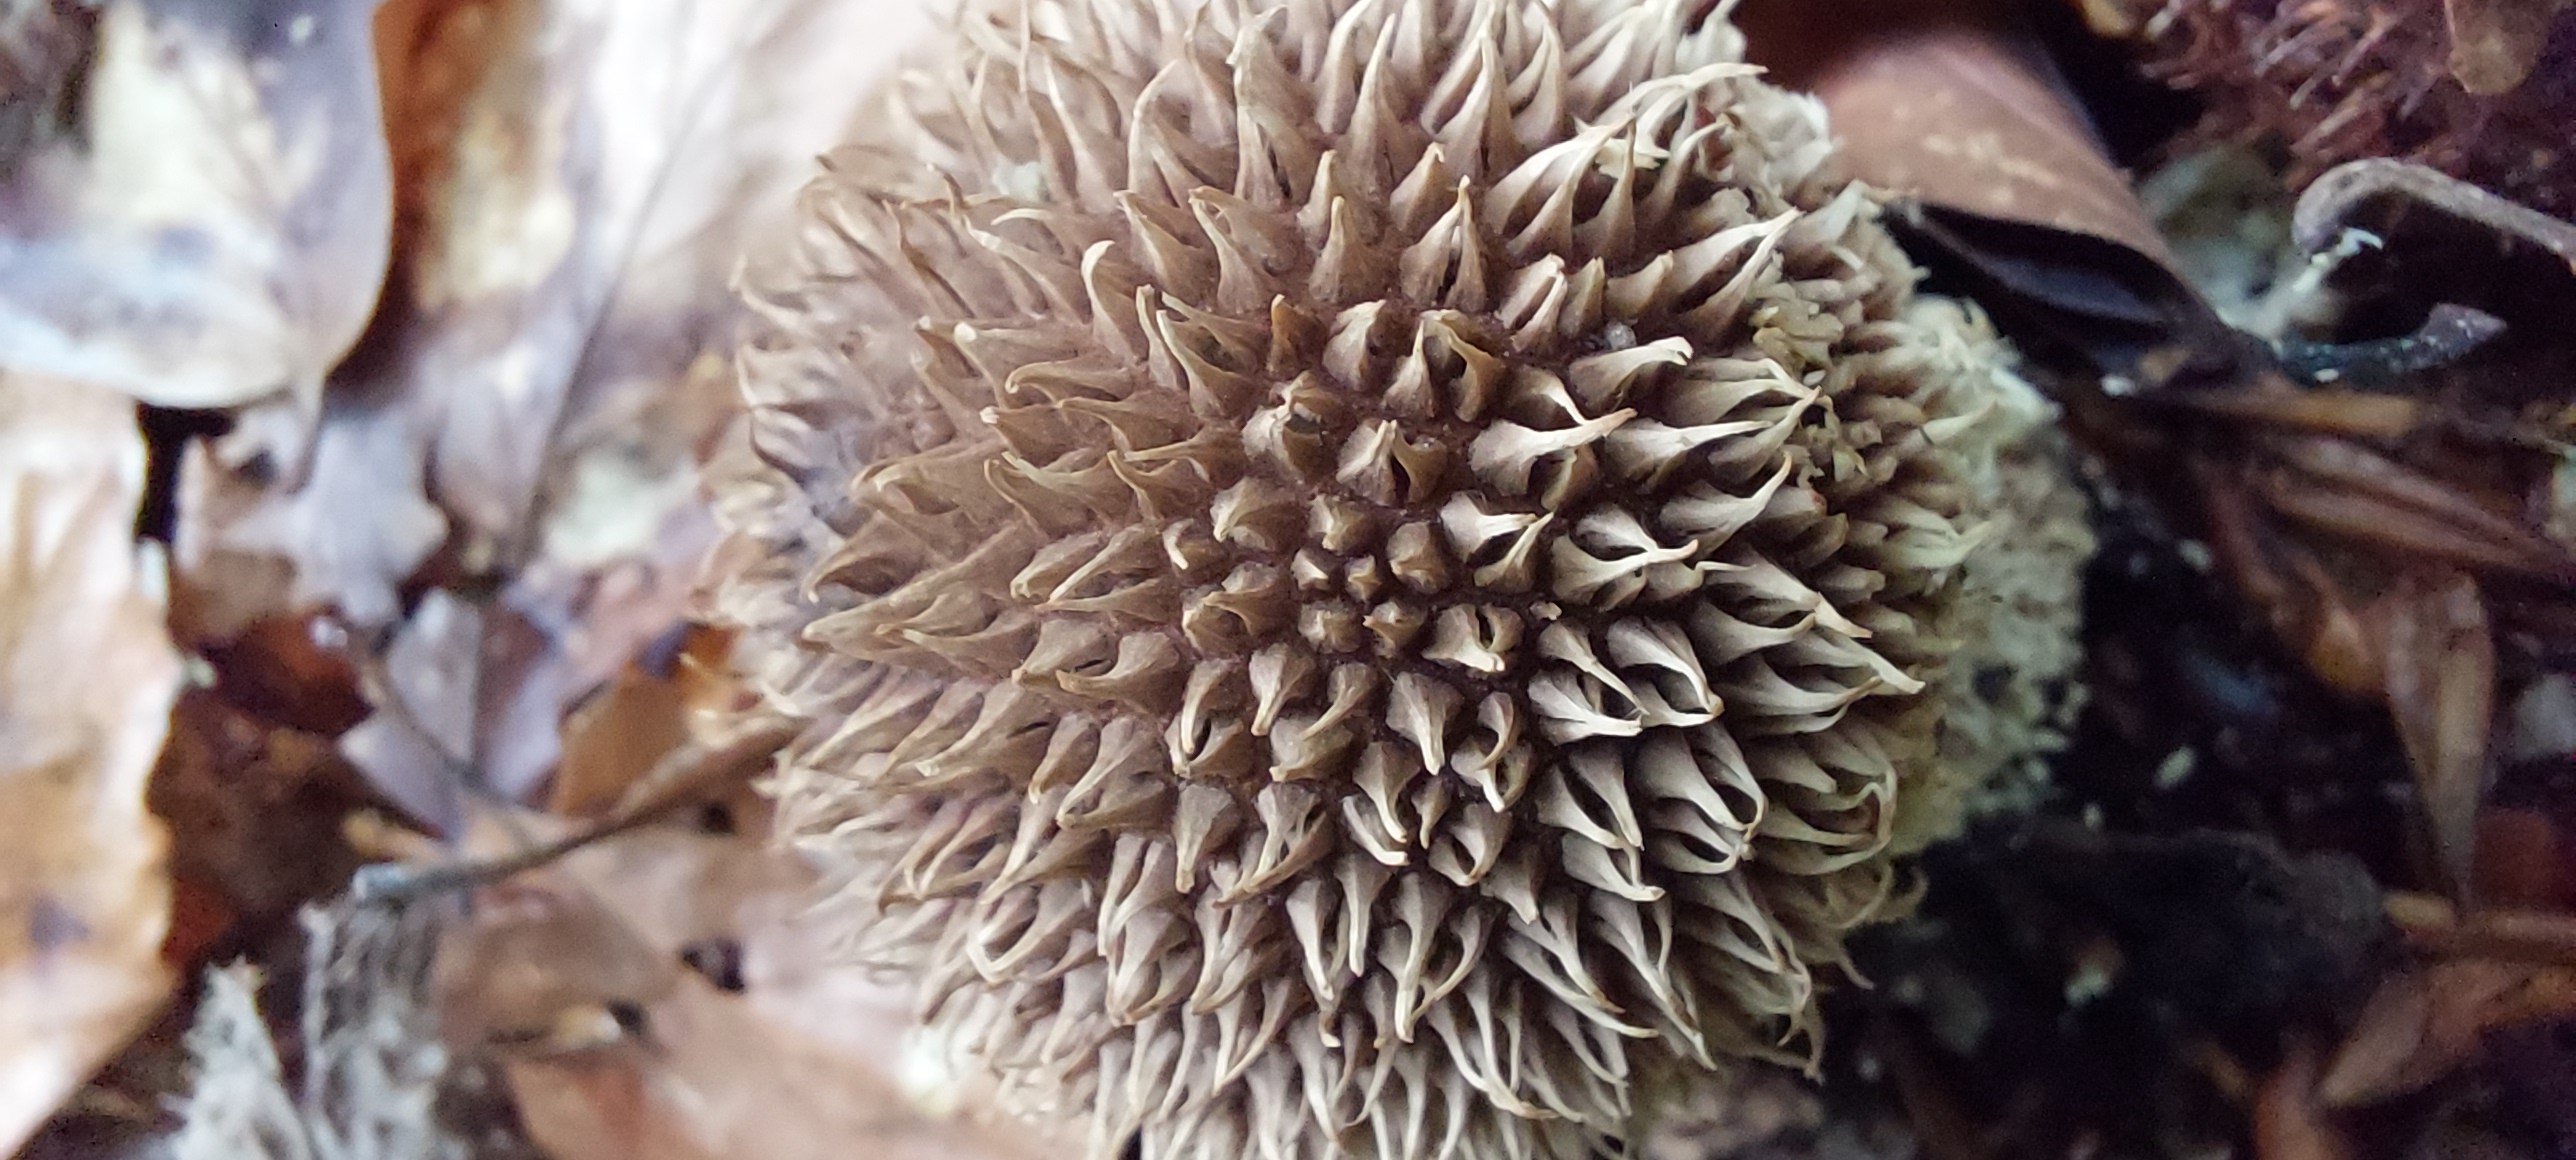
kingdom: Fungi
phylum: Basidiomycota
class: Agaricomycetes
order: Agaricales
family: Lycoperdaceae
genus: Lycoperdon
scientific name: Lycoperdon echinatum
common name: pindsvine-støvbold
